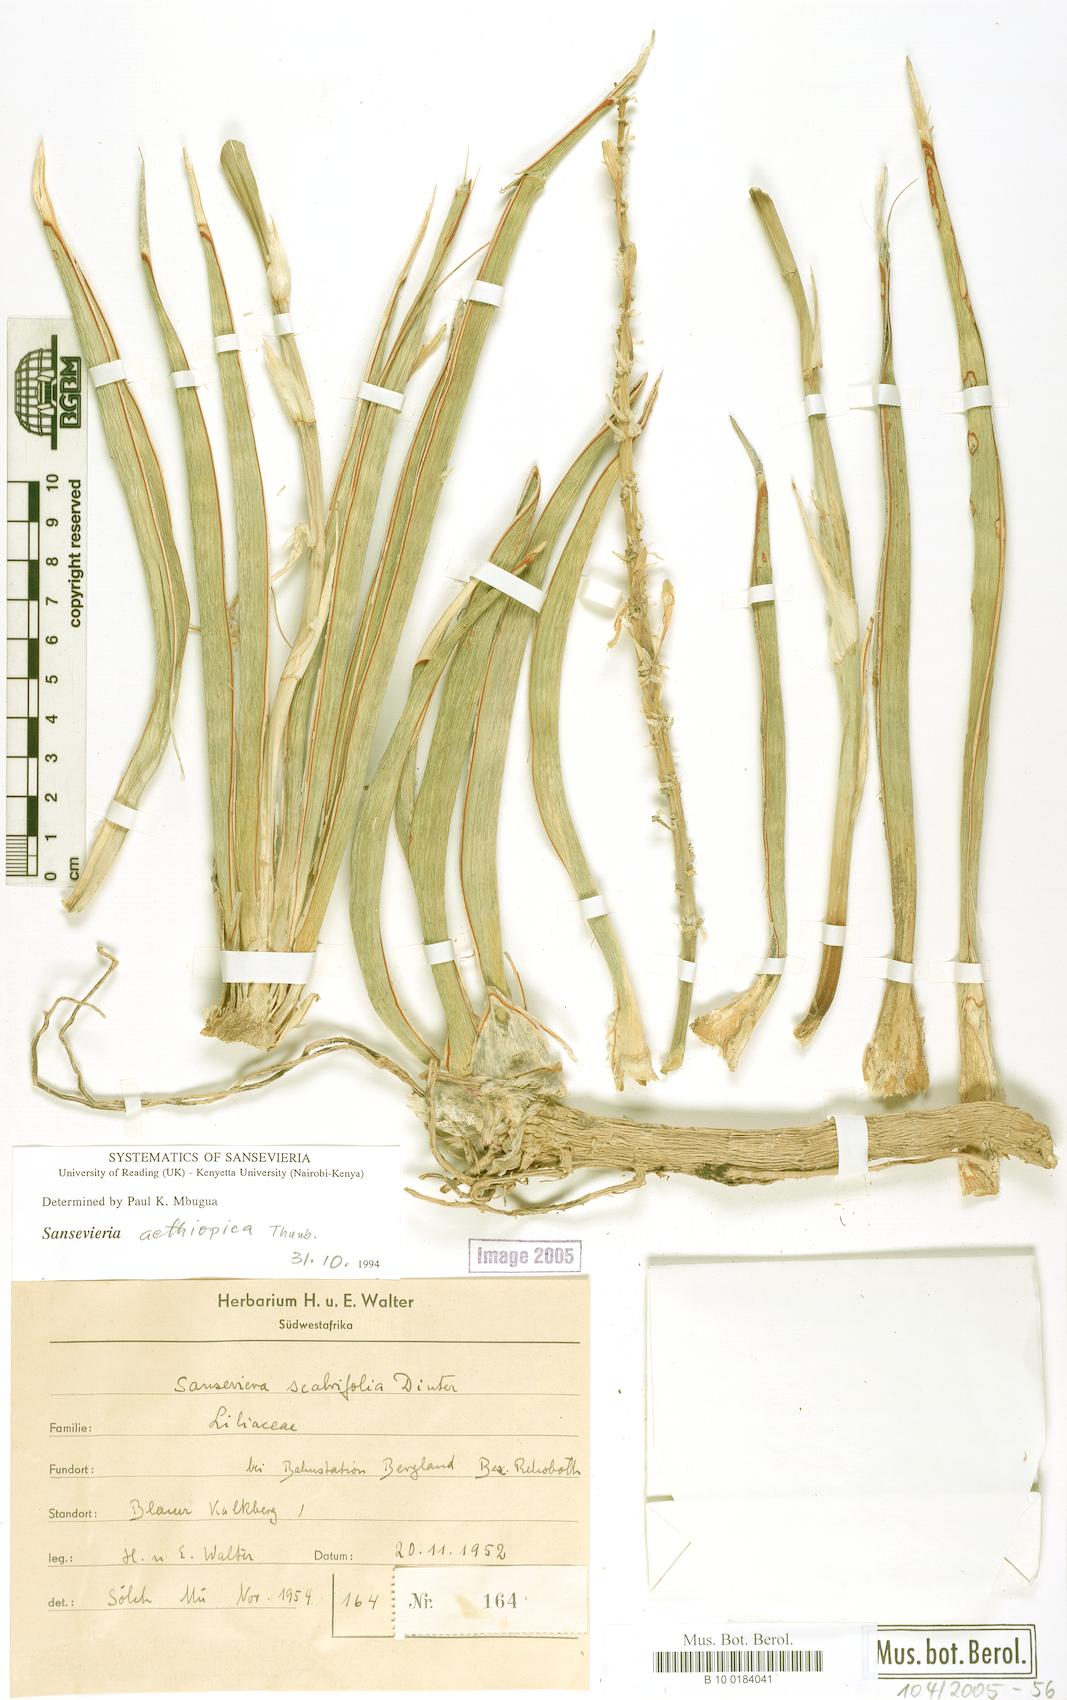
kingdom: Plantae
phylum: Tracheophyta
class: Liliopsida
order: Asparagales
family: Asparagaceae
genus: Dracaena
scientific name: Dracaena aethiopica
